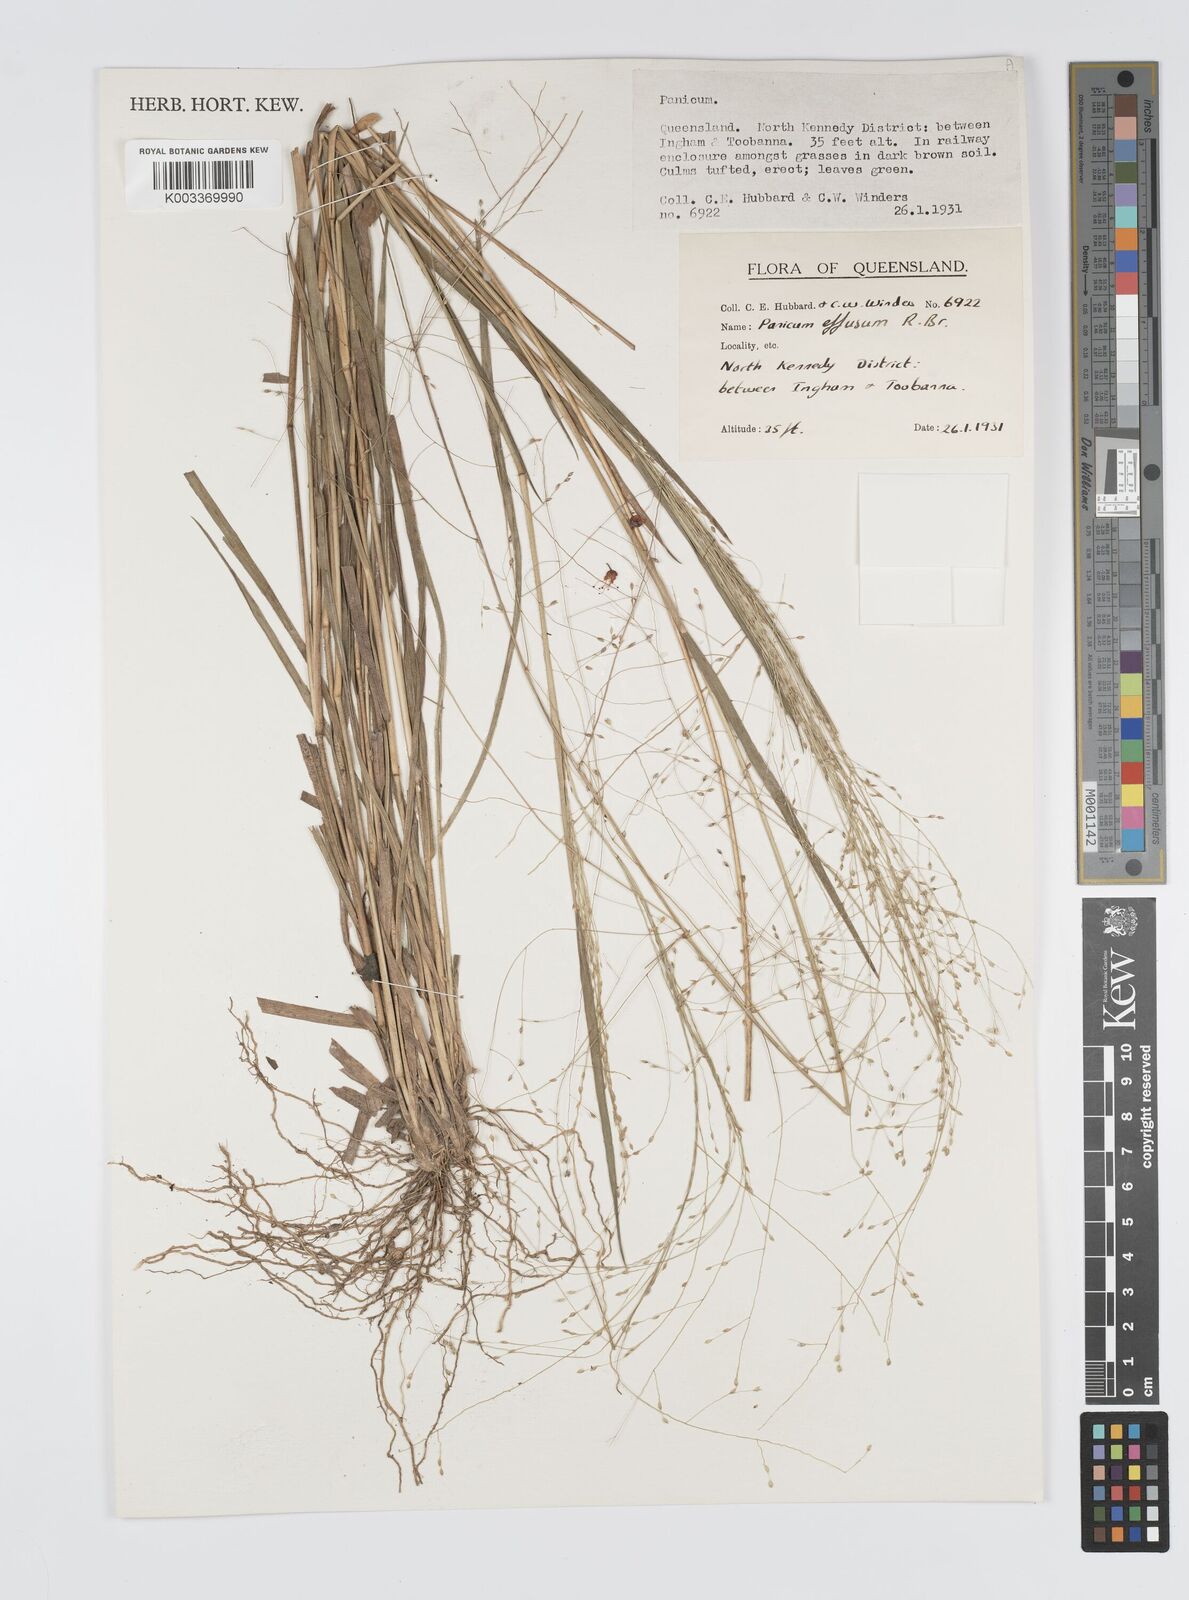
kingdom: Plantae
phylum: Tracheophyta
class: Liliopsida
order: Poales
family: Poaceae
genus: Panicum
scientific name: Panicum effusum
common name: Hairy panic grass
